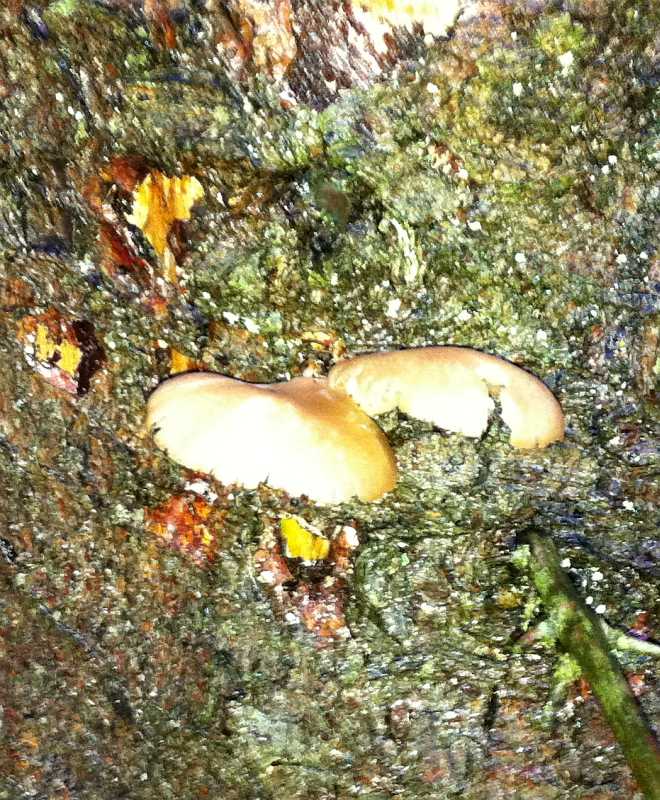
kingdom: Fungi
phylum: Basidiomycota
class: Agaricomycetes
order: Agaricales
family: Pleurotaceae
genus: Pleurotus
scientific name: Pleurotus ostreatus
